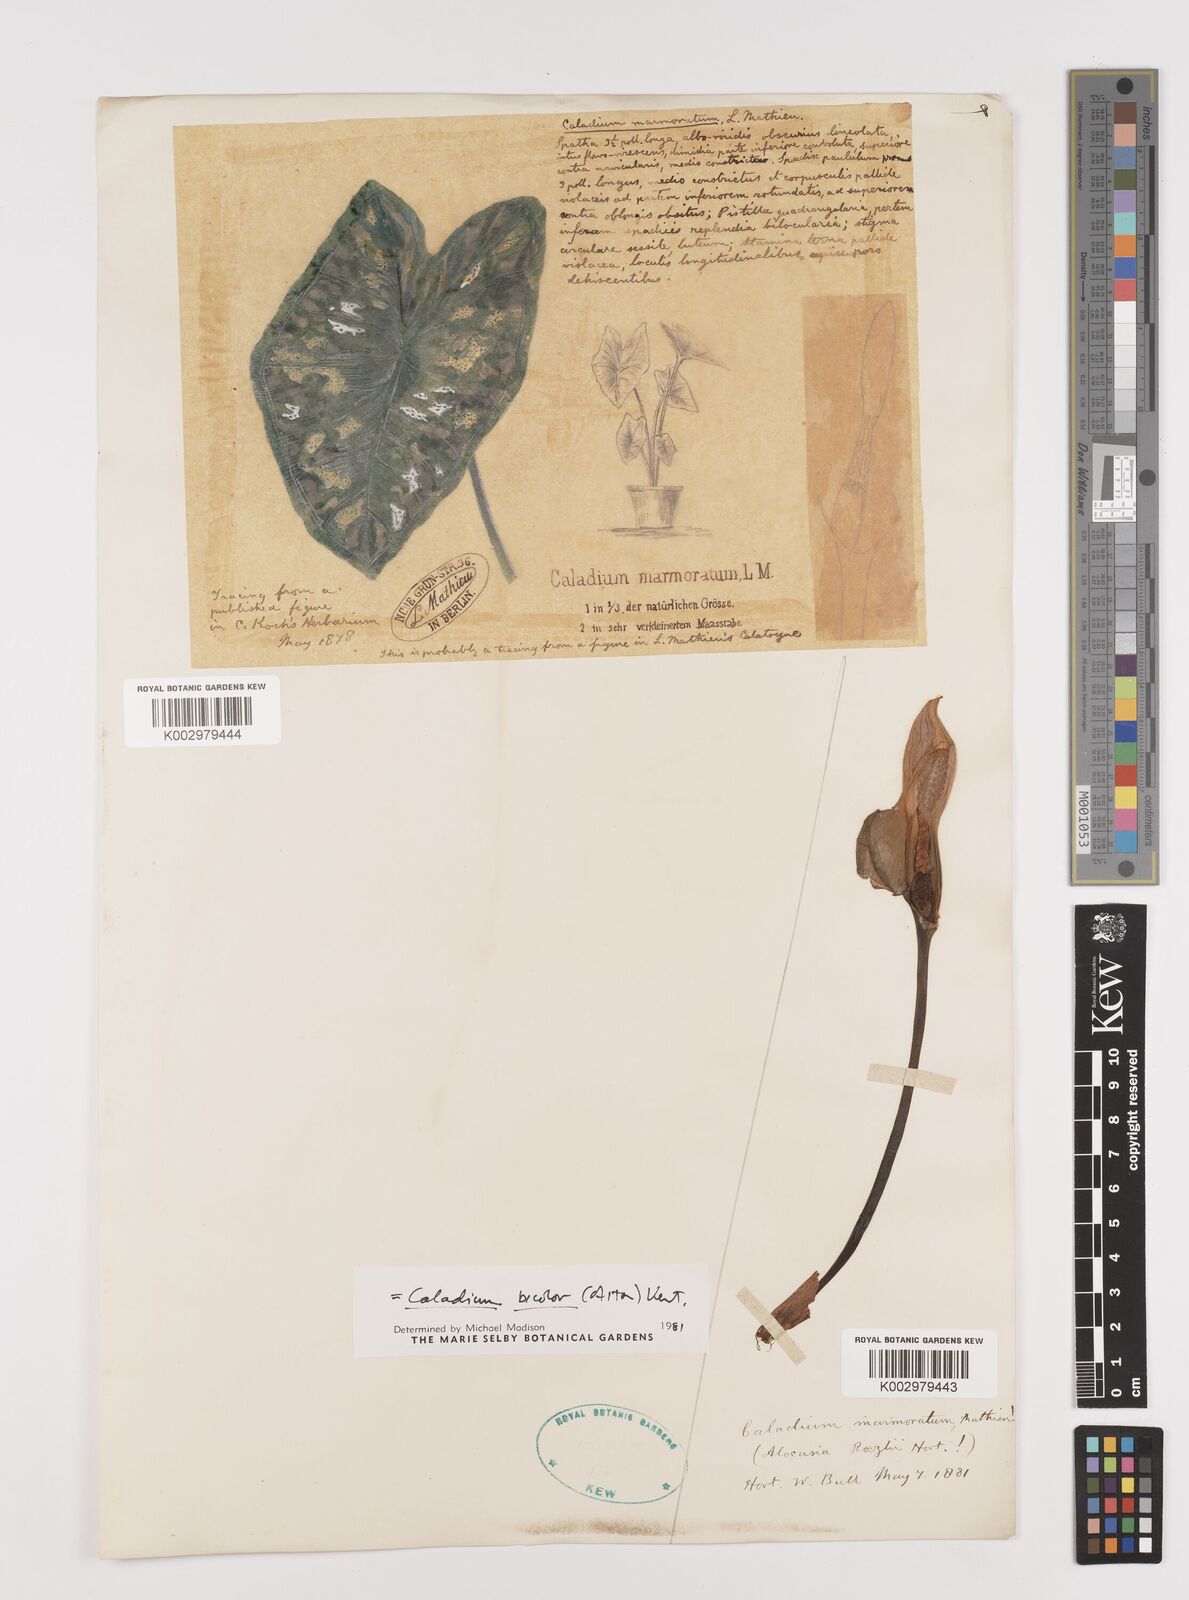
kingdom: Plantae
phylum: Tracheophyta
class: Liliopsida
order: Alismatales
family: Araceae
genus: Caladium
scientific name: Caladium bicolor
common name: Artist's pallet
